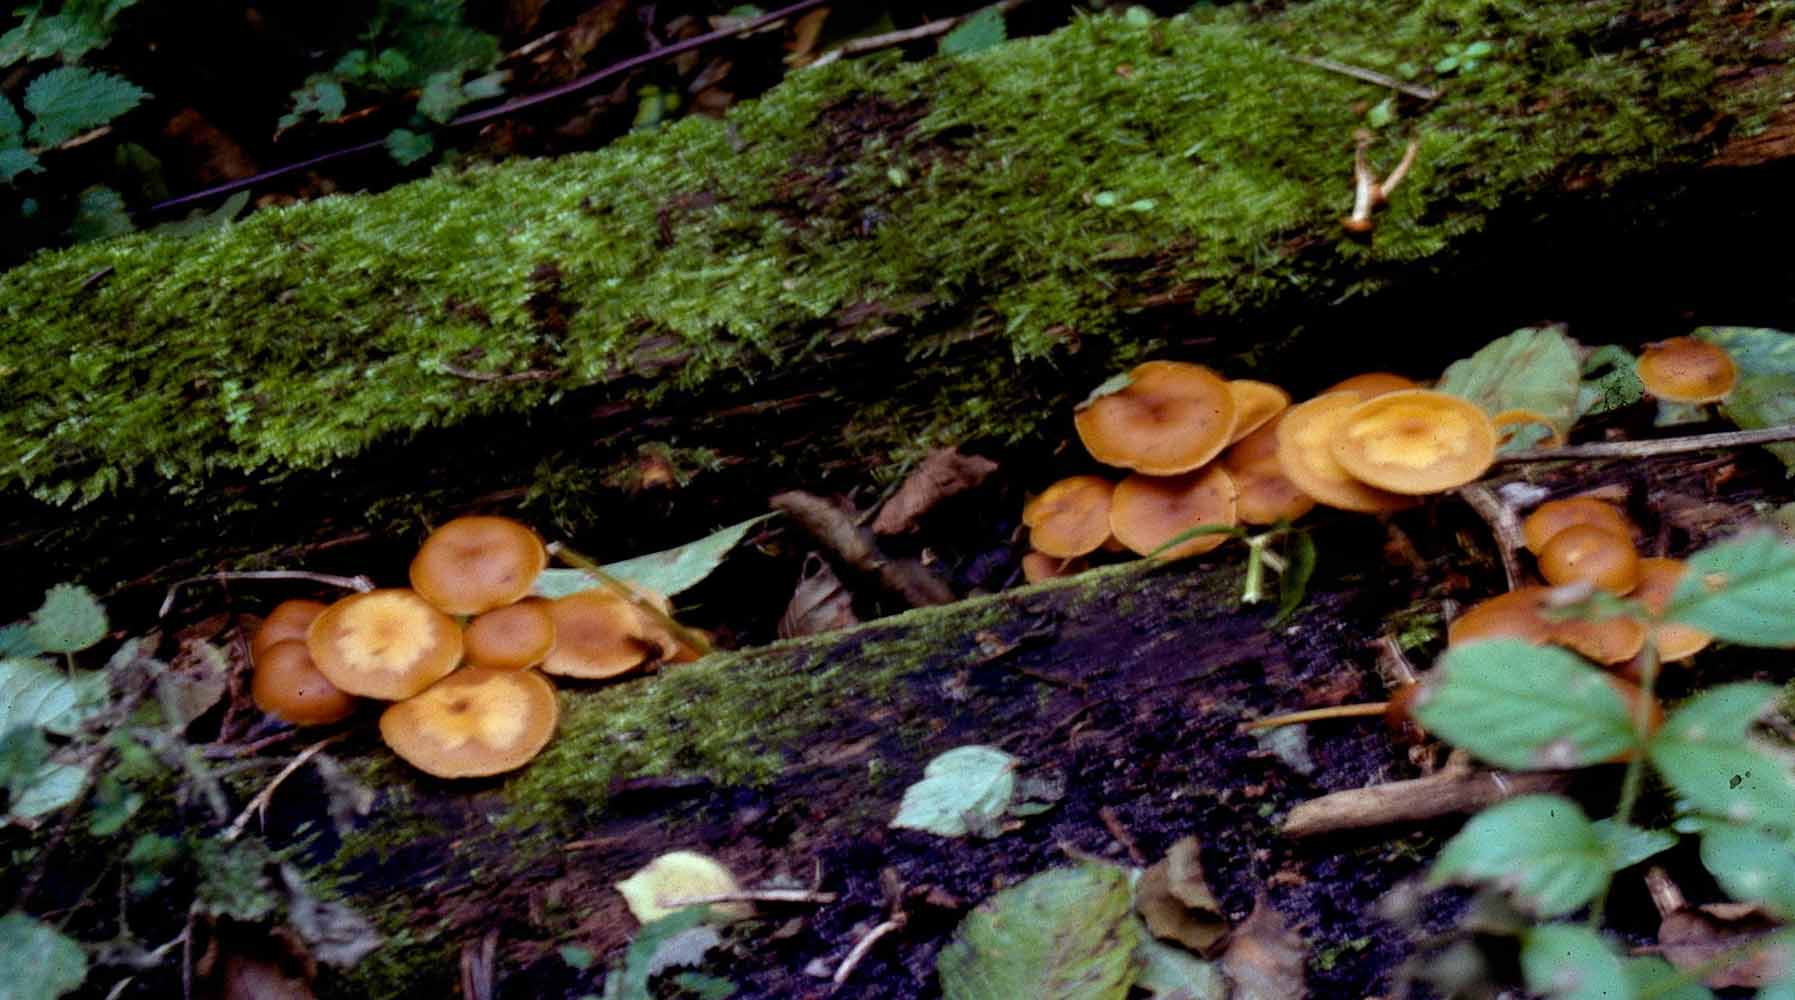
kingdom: Fungi
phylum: Basidiomycota
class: Agaricomycetes
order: Agaricales
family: Hymenogastraceae
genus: Galerina
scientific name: Galerina marginata
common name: randbæltet hjelmhat
